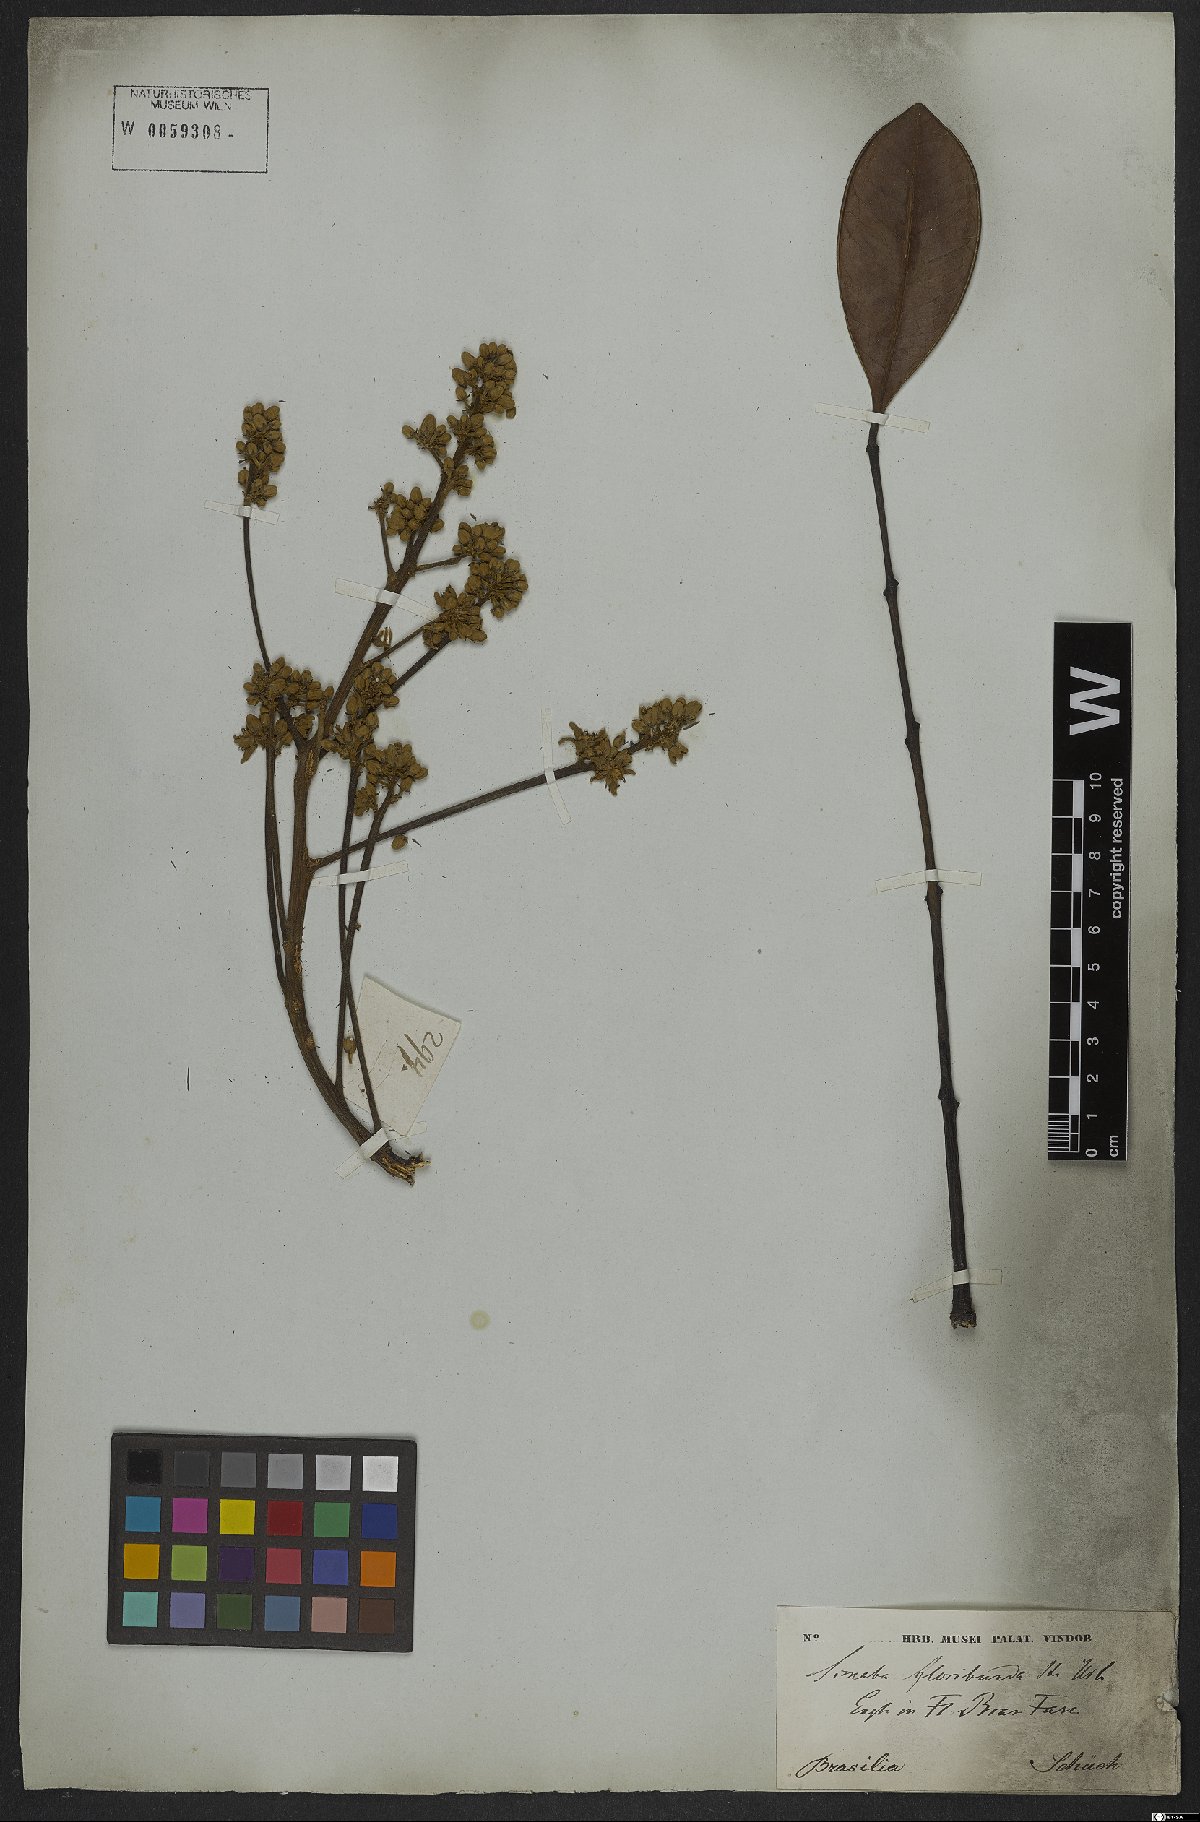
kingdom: Plantae
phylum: Tracheophyta
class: Magnoliopsida
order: Sapindales
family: Simaroubaceae
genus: Homalolepis
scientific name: Homalolepis floribunda
